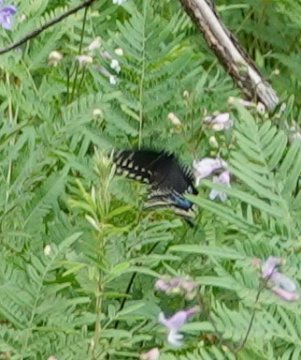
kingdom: Animalia
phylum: Arthropoda
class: Insecta
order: Lepidoptera
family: Papilionidae
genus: Papilio
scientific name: Papilio polyxenes
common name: Black Swallowtail
